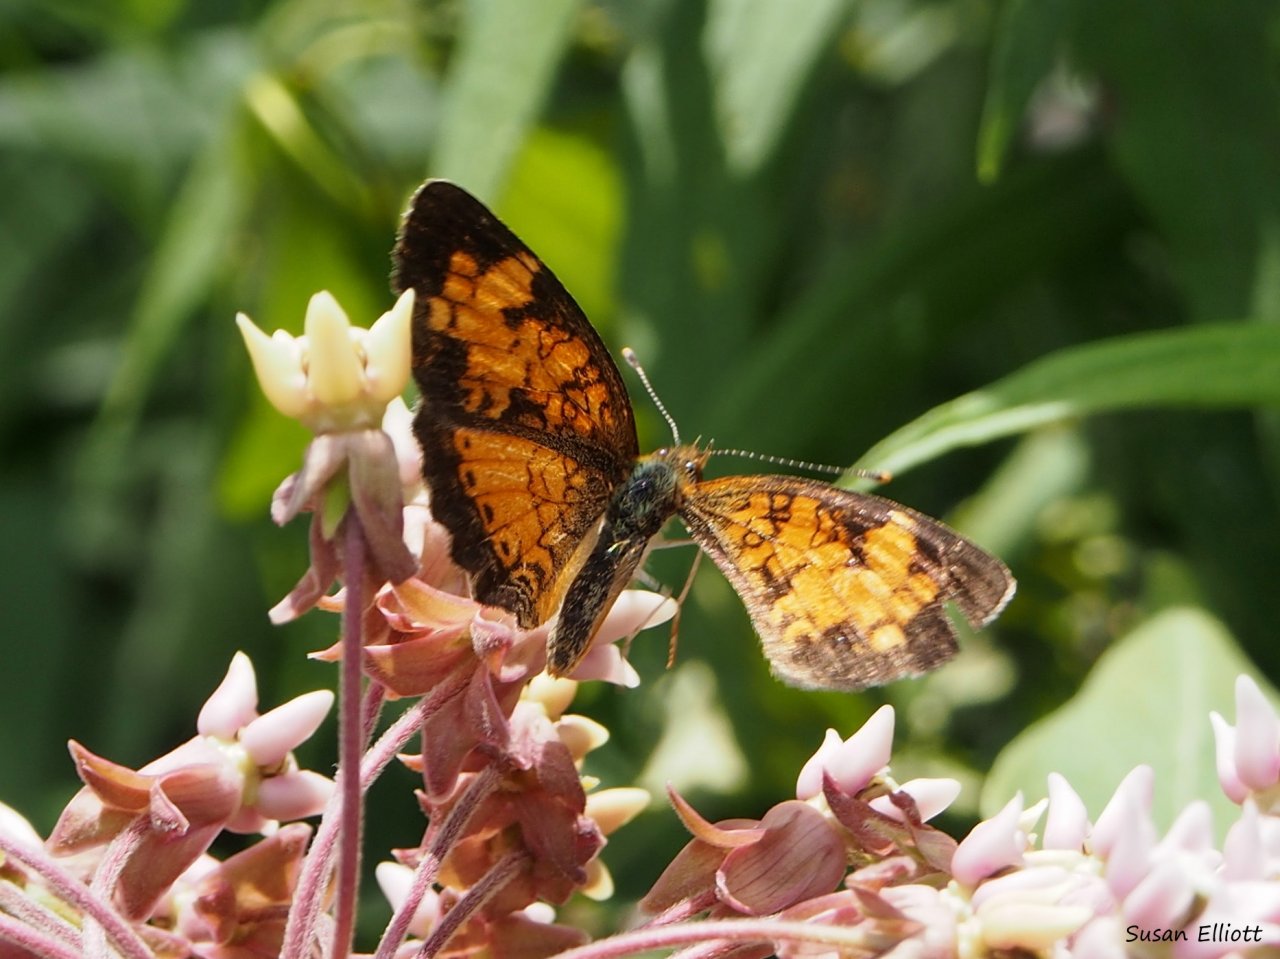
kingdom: Animalia
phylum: Arthropoda
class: Insecta
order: Lepidoptera
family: Nymphalidae
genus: Phyciodes
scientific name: Phyciodes
